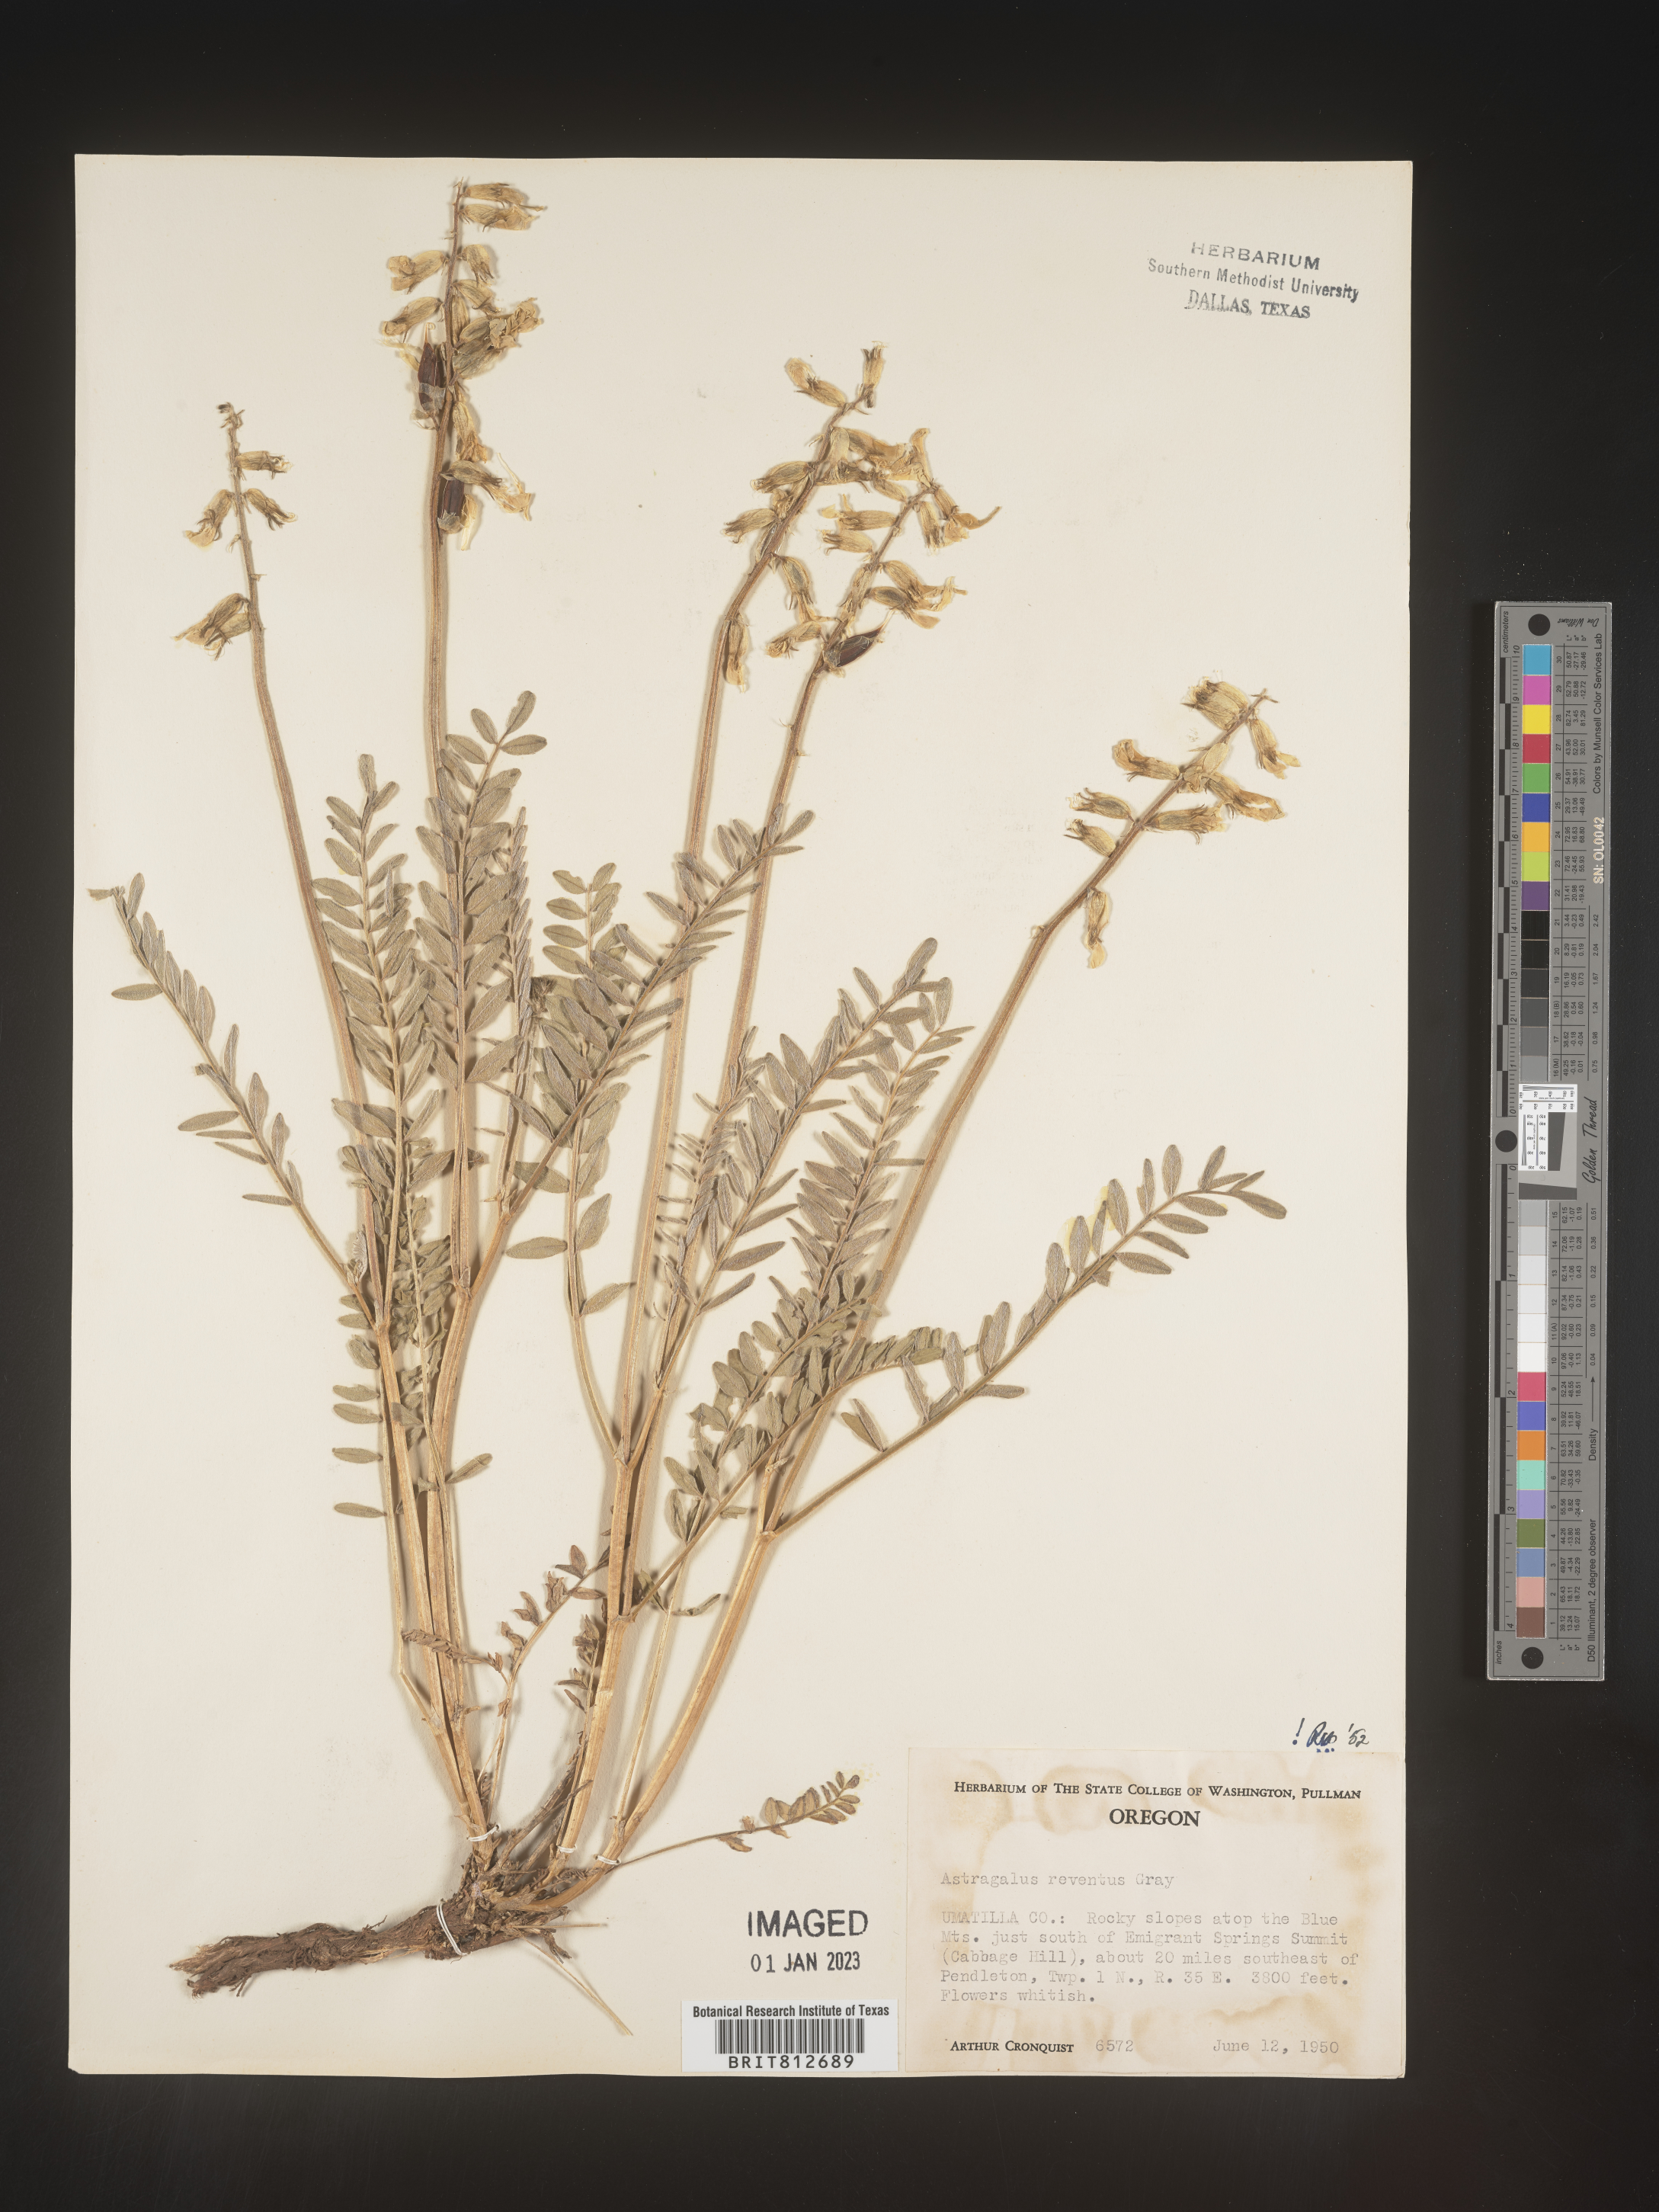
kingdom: Plantae
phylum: Tracheophyta
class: Magnoliopsida
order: Fabales
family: Fabaceae
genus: Astragalus
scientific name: Astragalus
